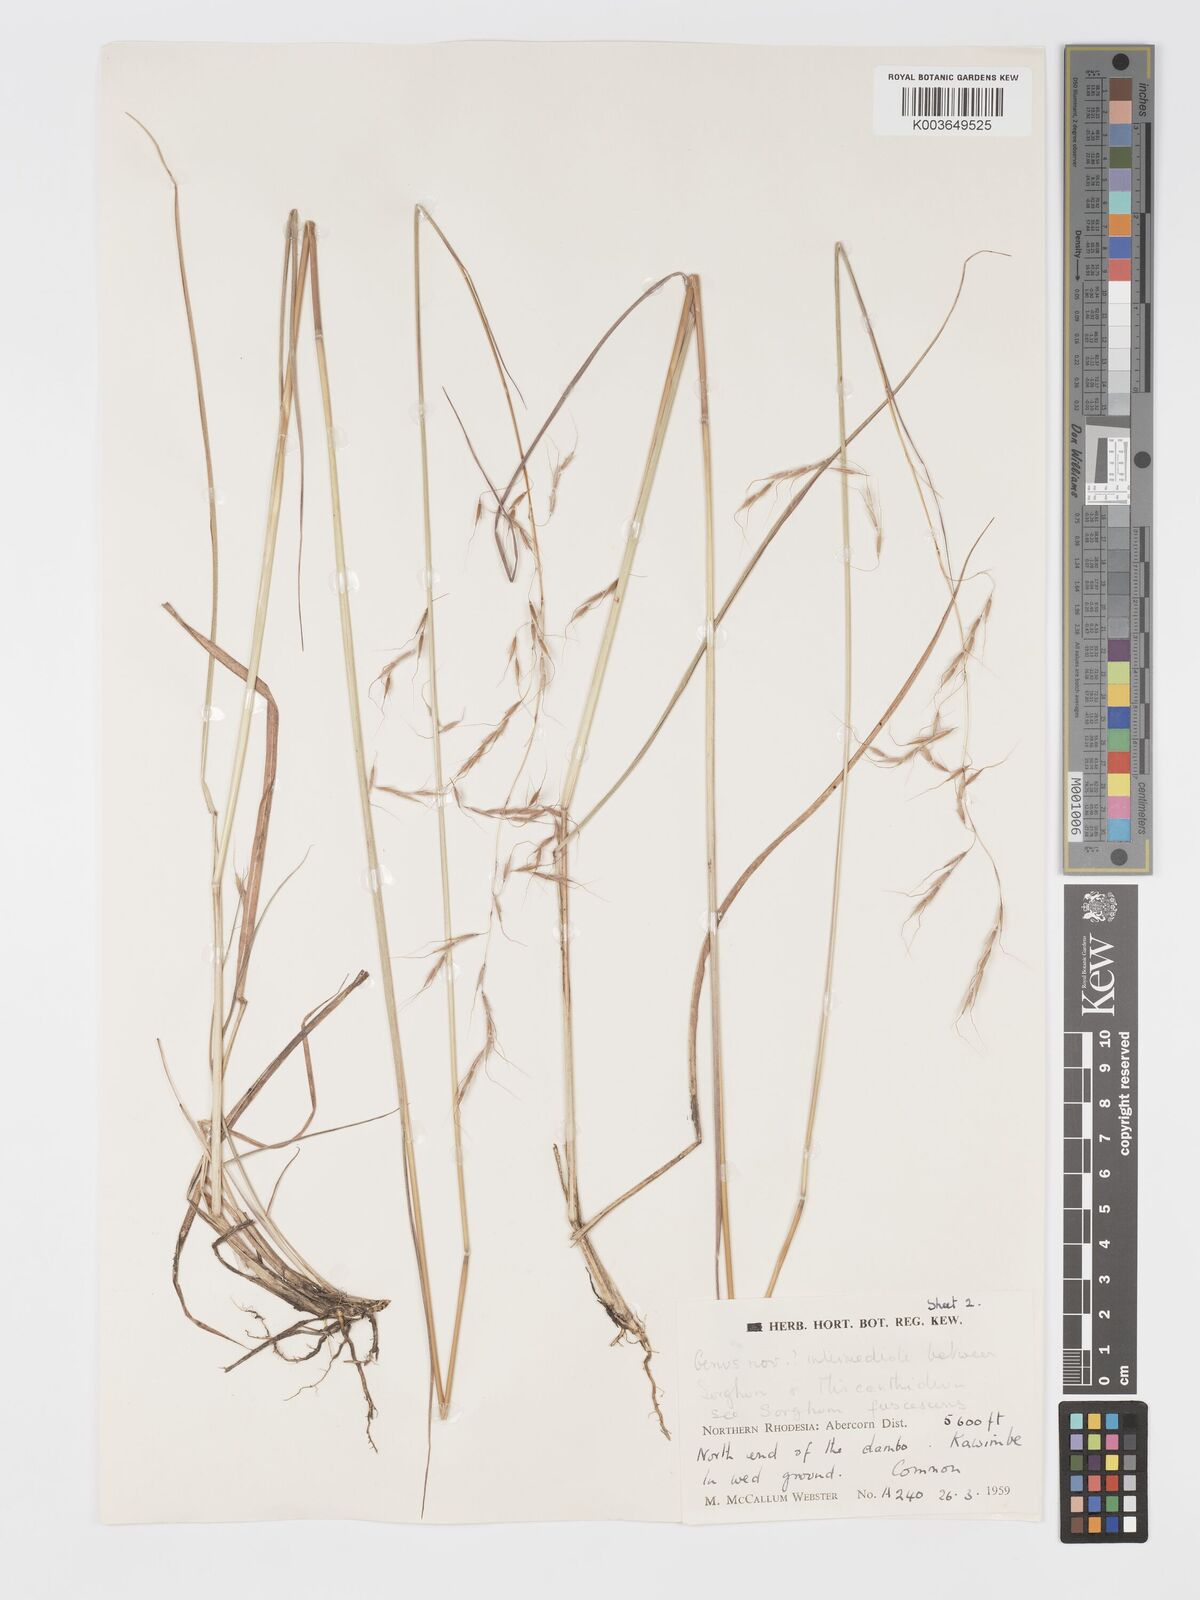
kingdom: Plantae
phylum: Tracheophyta
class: Liliopsida
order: Poales
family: Poaceae
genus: Sorghastrum
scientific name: Sorghastrum nudipes
